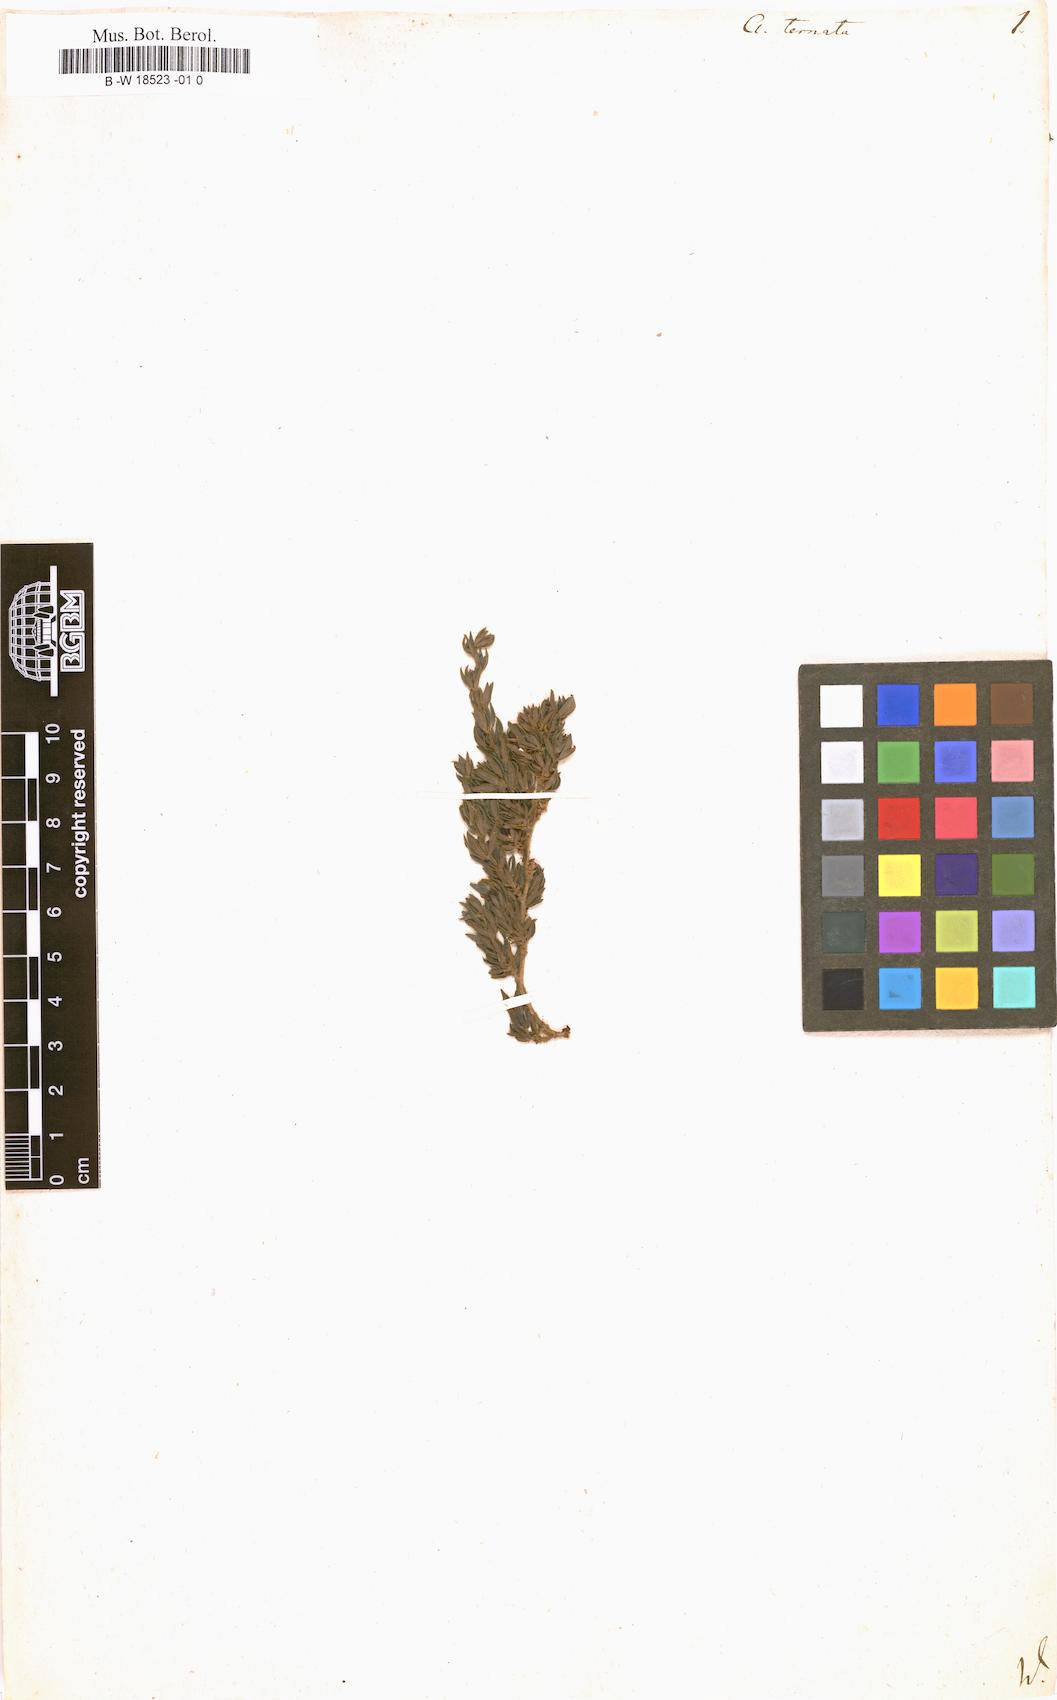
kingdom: Plantae
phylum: Tracheophyta
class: Magnoliopsida
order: Rosales
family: Rosaceae
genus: Cliffortia
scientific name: Cliffortia polygonifolia
